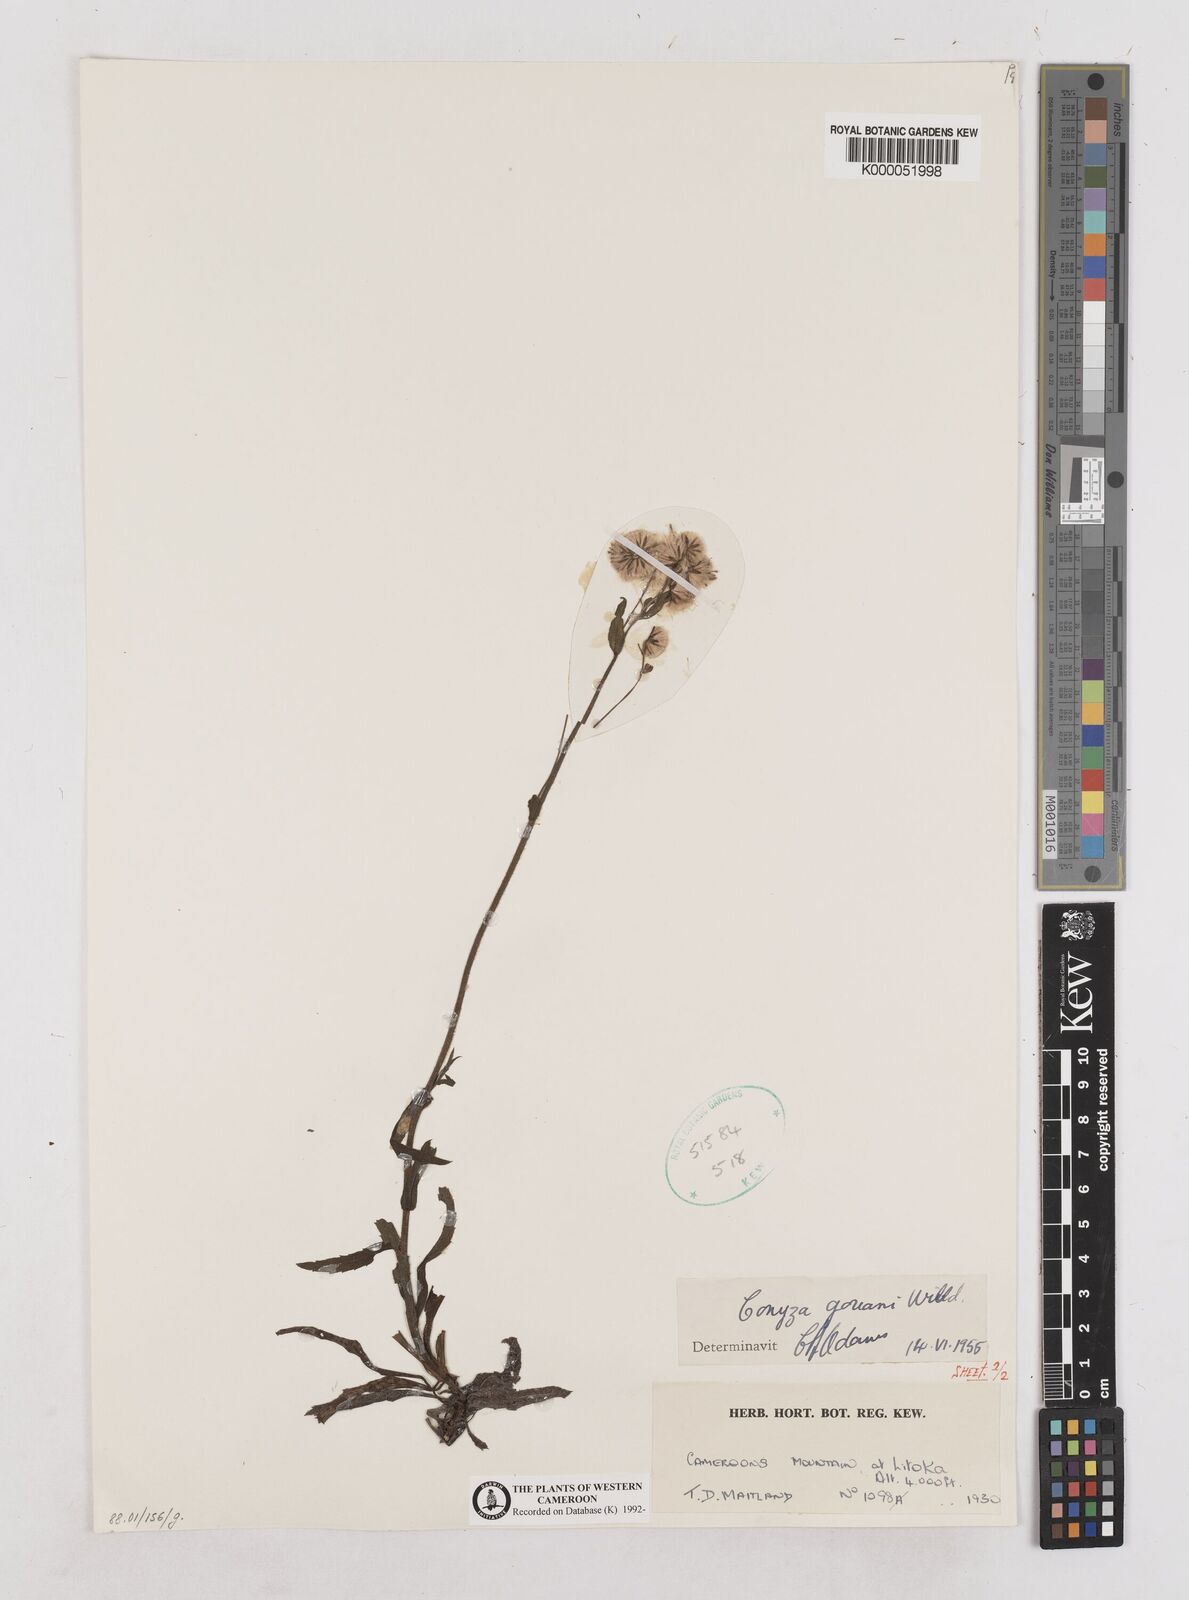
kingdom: Plantae
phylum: Tracheophyta
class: Magnoliopsida
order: Asterales
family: Asteraceae
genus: Eschenbachia
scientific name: Eschenbachia gouanii
